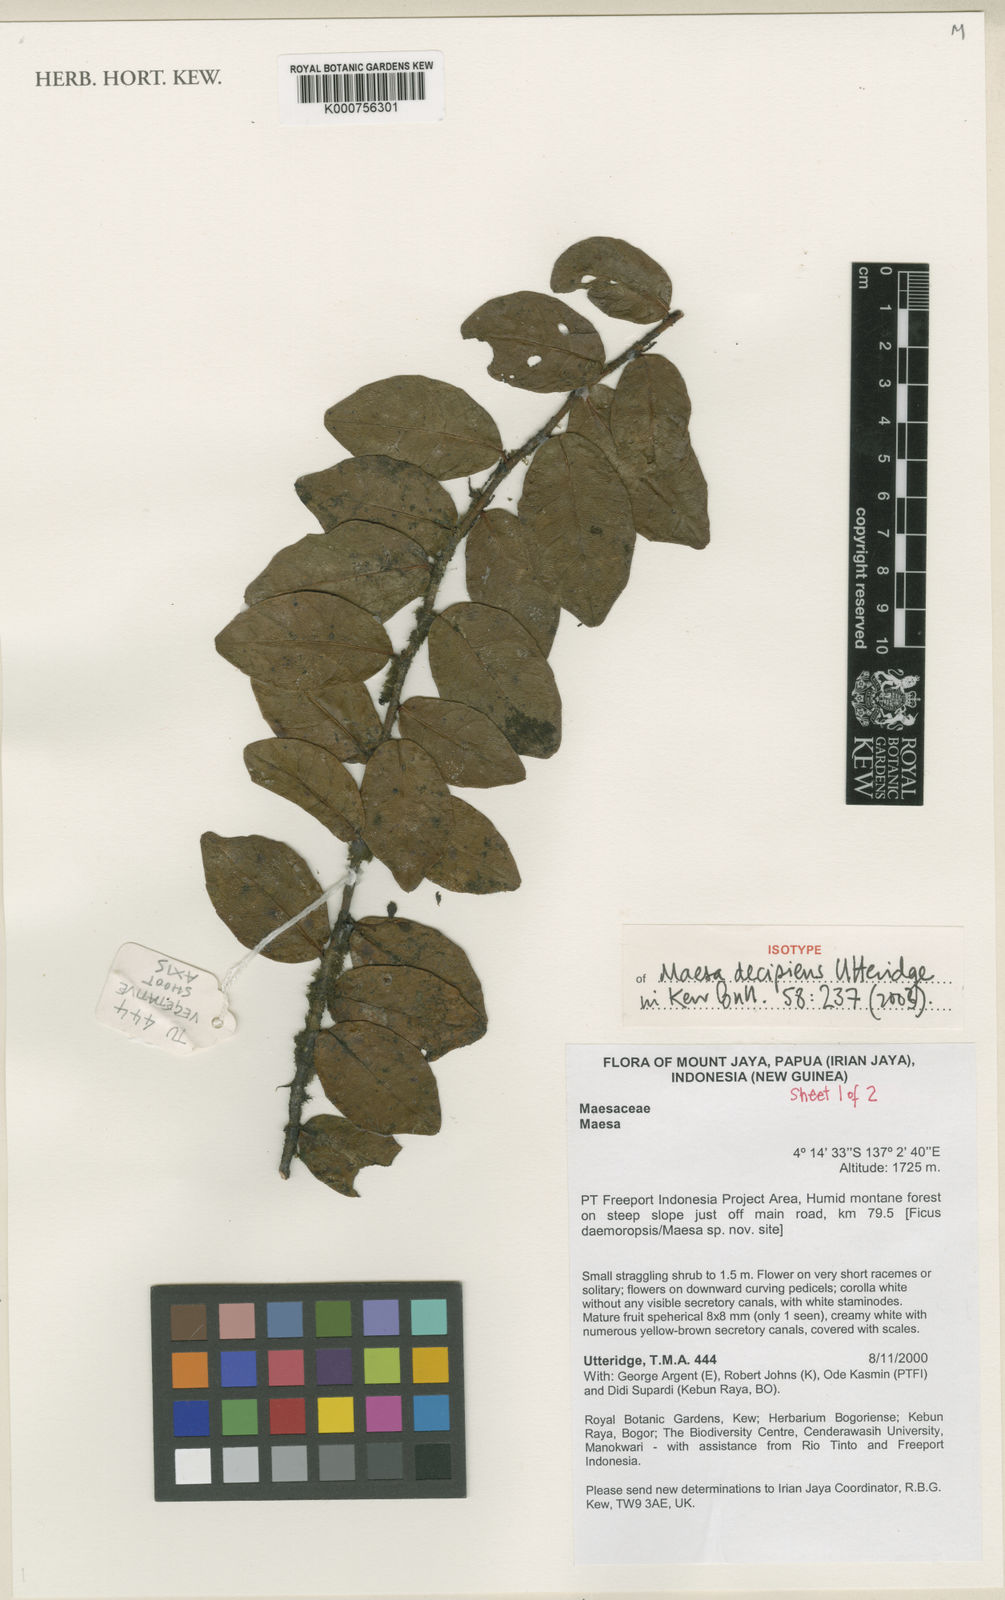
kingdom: Plantae
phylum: Tracheophyta
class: Magnoliopsida
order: Ericales
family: Primulaceae
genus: Maesa
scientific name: Maesa decipiens
